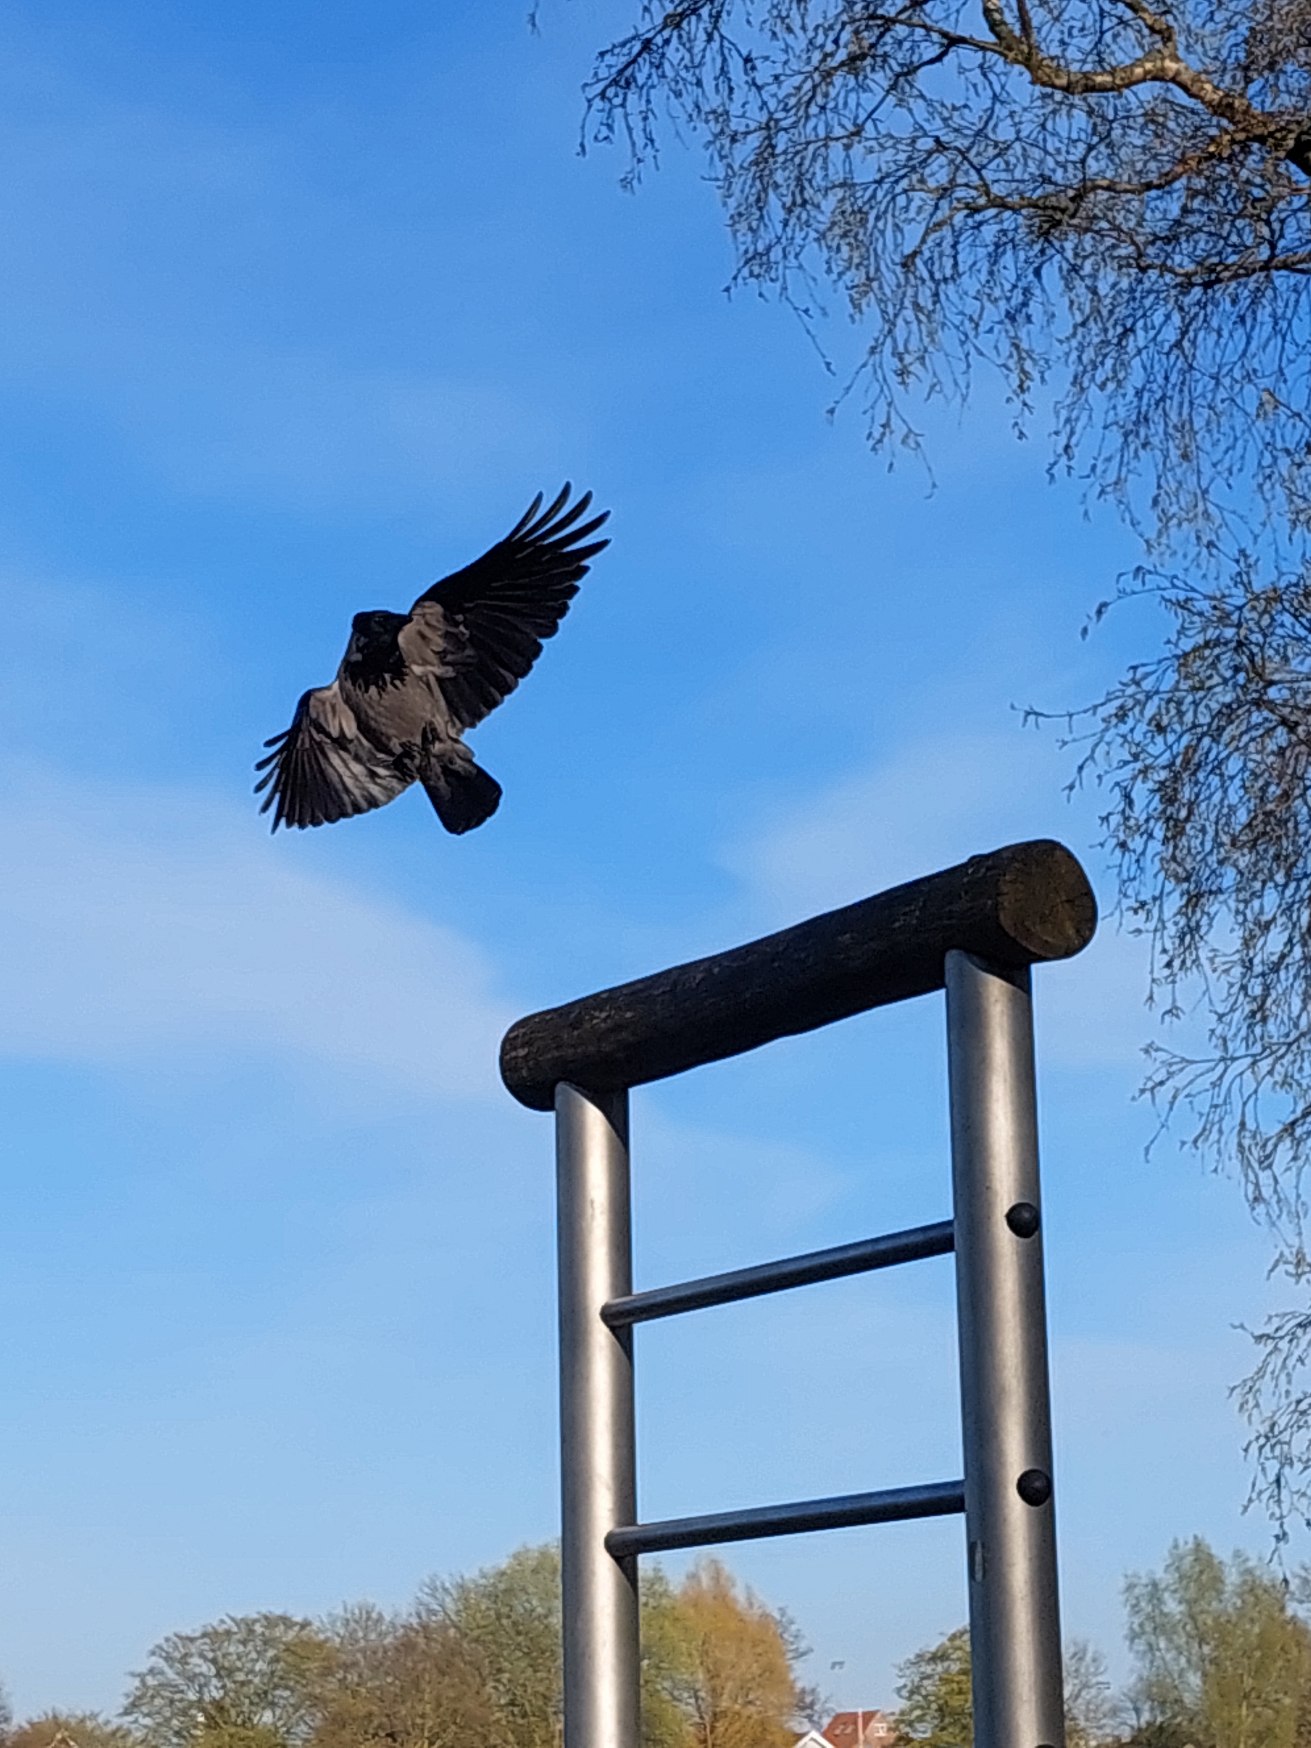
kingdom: Animalia
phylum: Chordata
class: Aves
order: Passeriformes
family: Corvidae
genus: Corvus
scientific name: Corvus cornix
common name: Gråkrage
